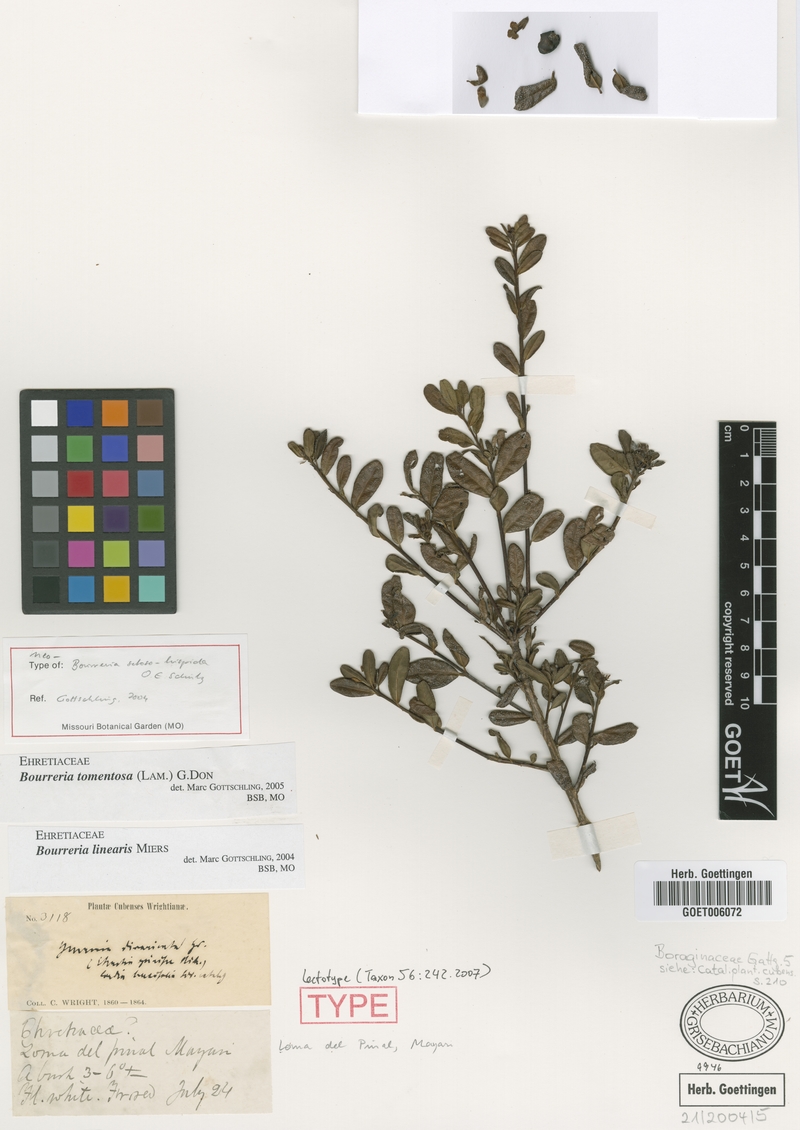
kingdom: Plantae
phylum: Tracheophyta
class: Magnoliopsida
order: Boraginales
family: Ehretiaceae
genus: Bourreria
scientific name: Bourreria tomentosa
